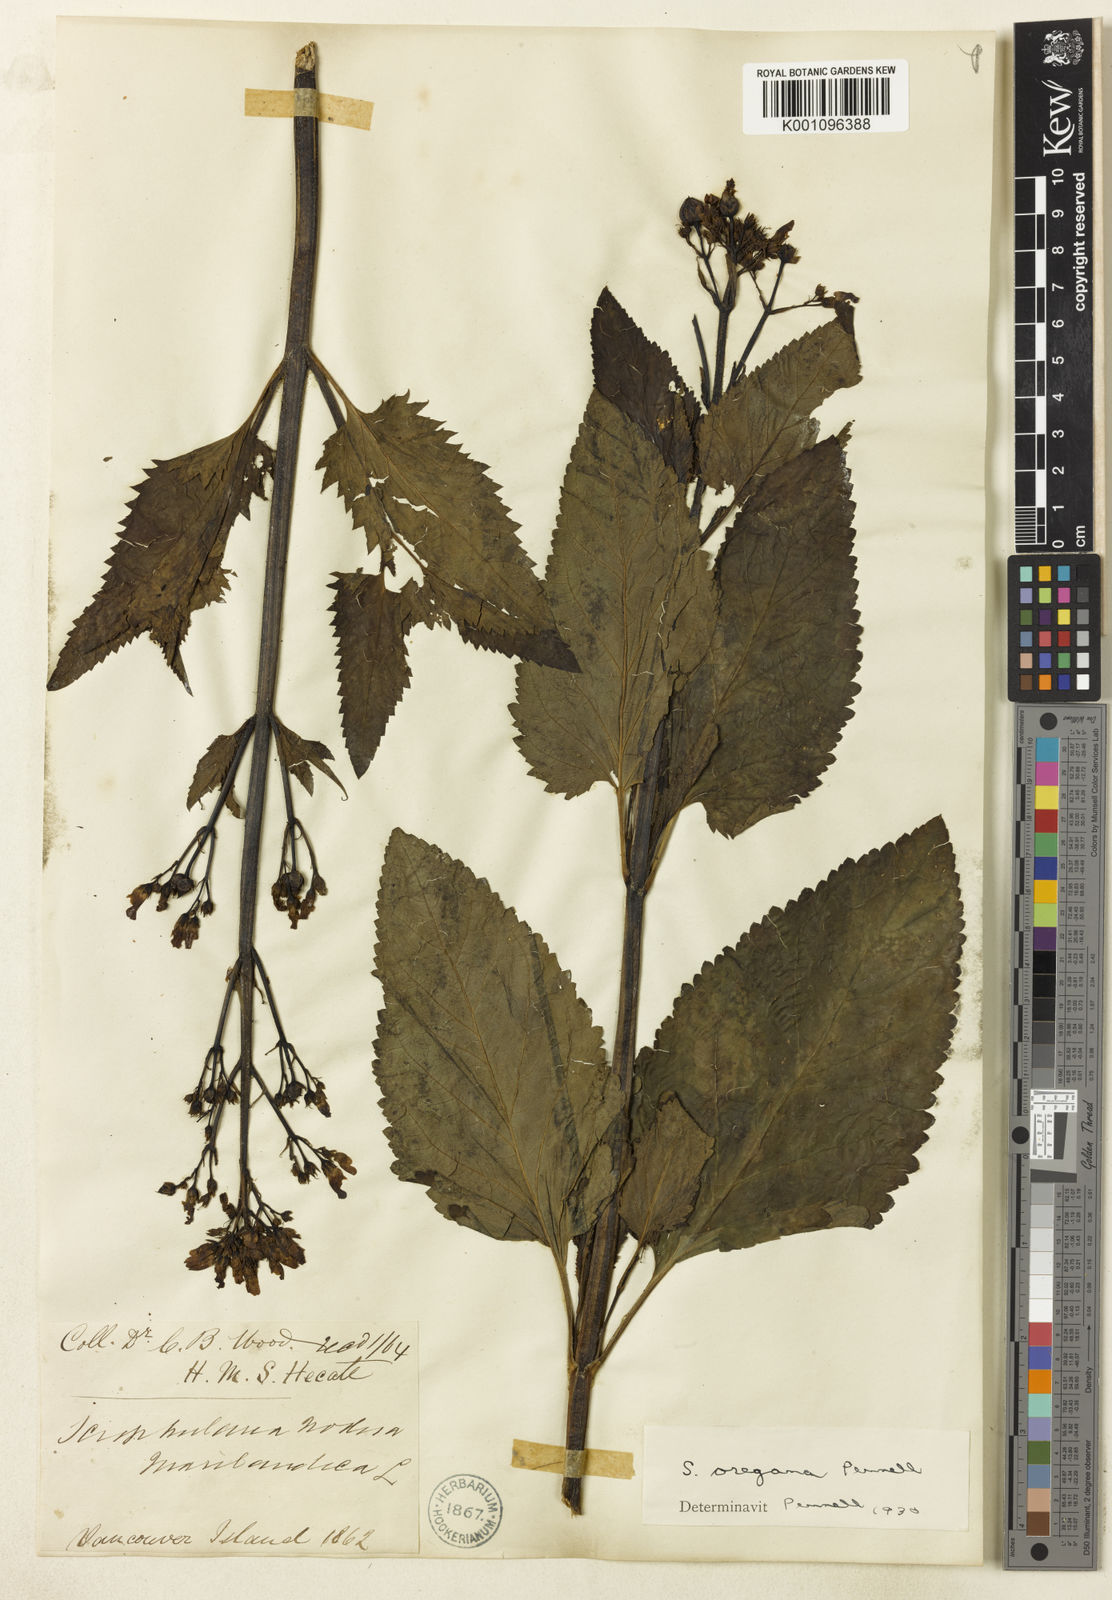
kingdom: Plantae
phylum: Tracheophyta
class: Magnoliopsida
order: Lamiales
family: Scrophulariaceae
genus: Scrophularia
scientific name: Scrophularia californica
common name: California figwort
